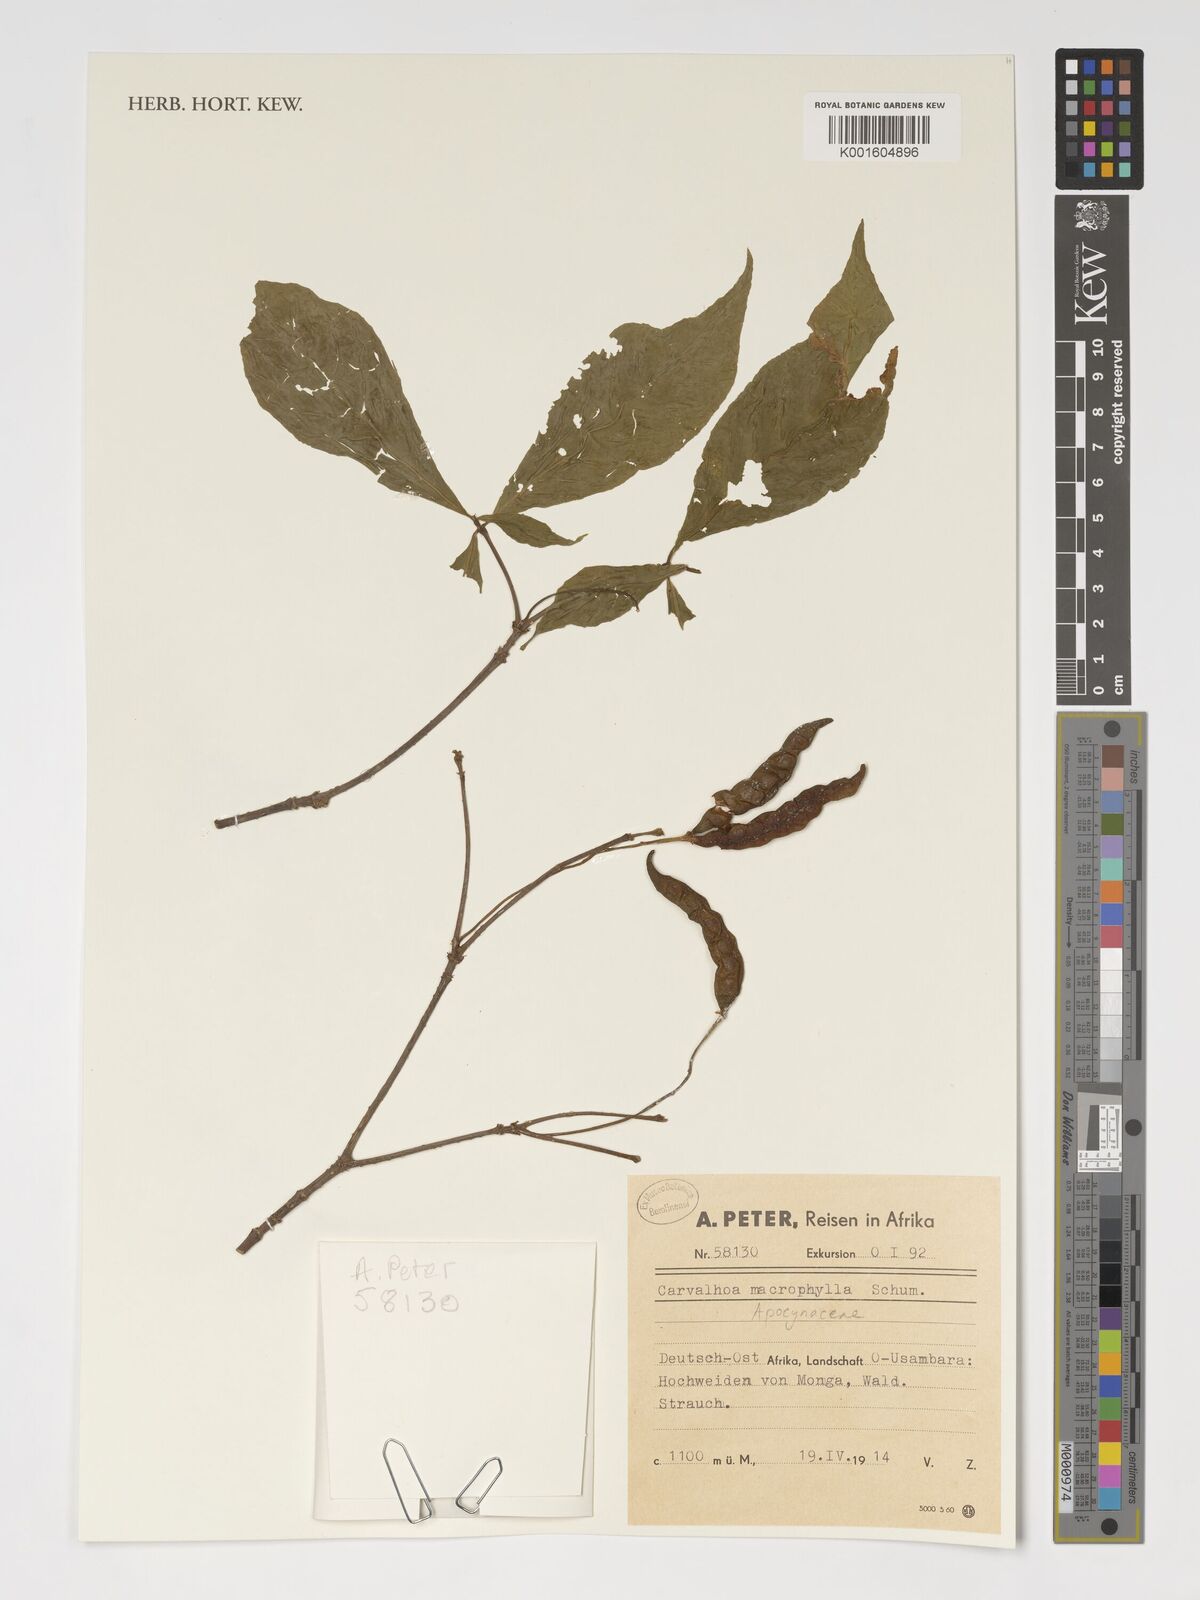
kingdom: Plantae
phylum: Tracheophyta
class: Magnoliopsida
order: Gentianales
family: Apocynaceae
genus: Carvalhoa
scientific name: Carvalhoa macrophylla
